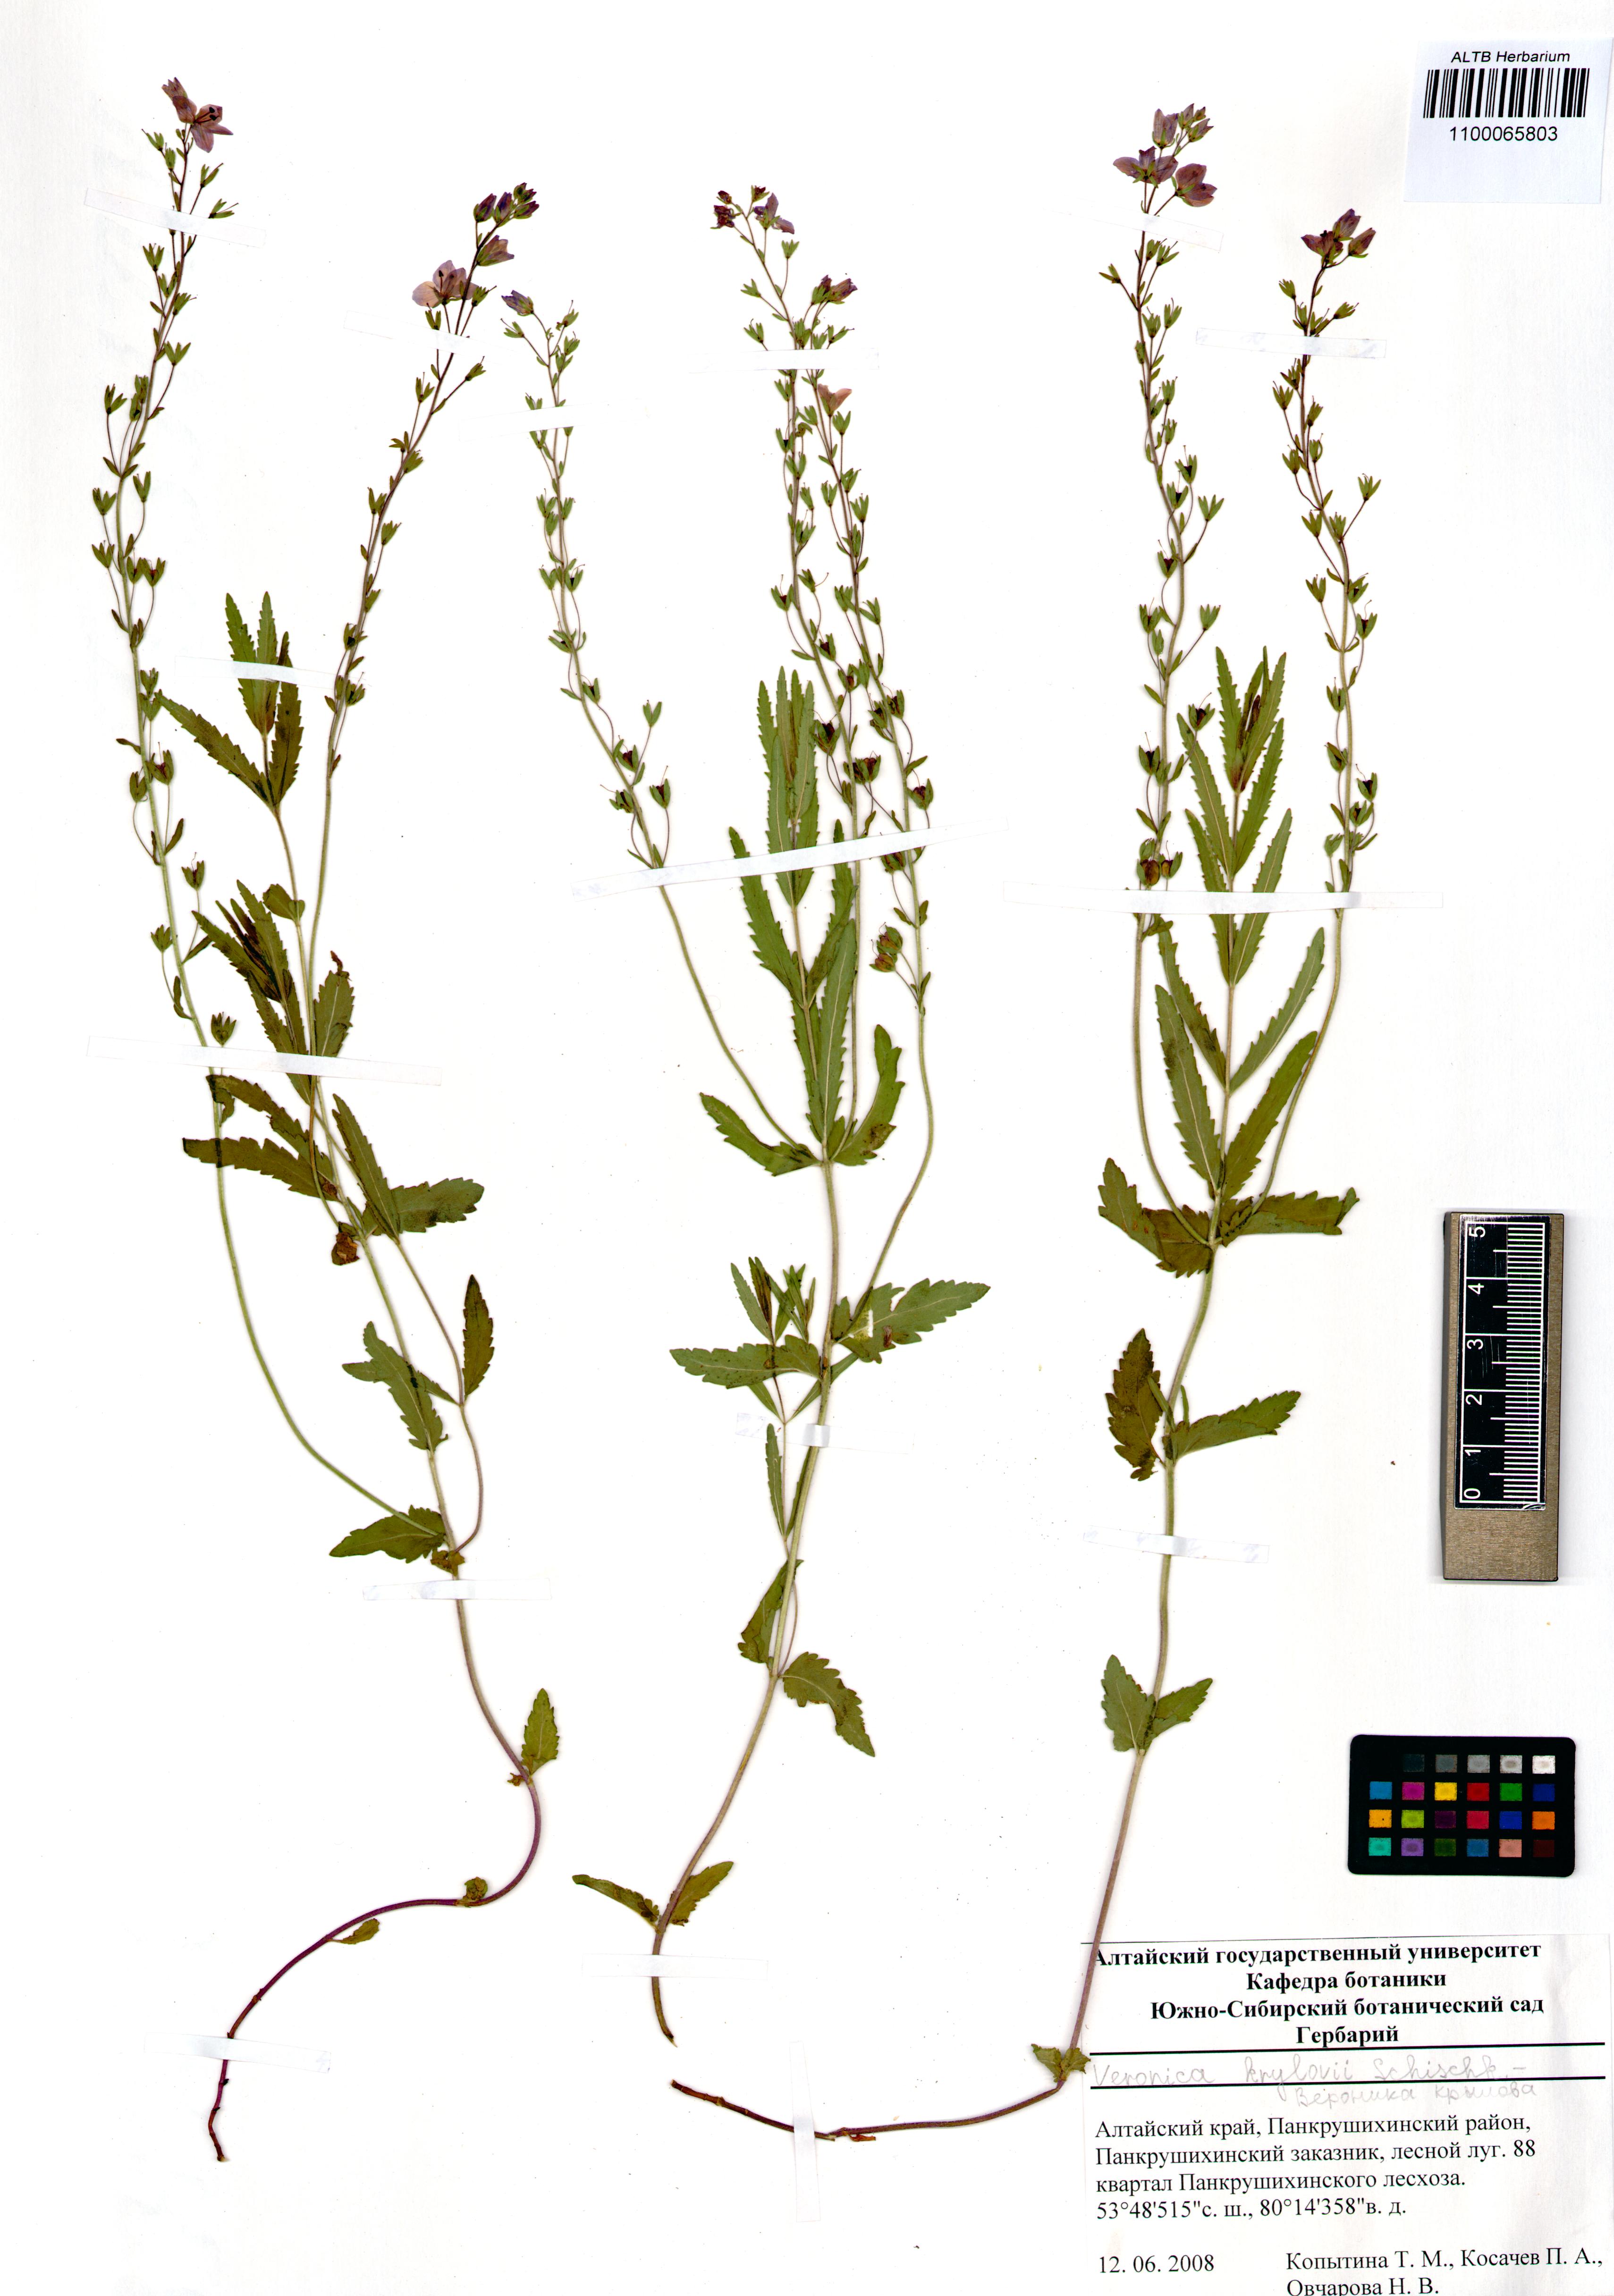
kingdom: Plantae
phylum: Tracheophyta
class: Magnoliopsida
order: Lamiales
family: Plantaginaceae
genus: Veronica
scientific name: Veronica krylovii
